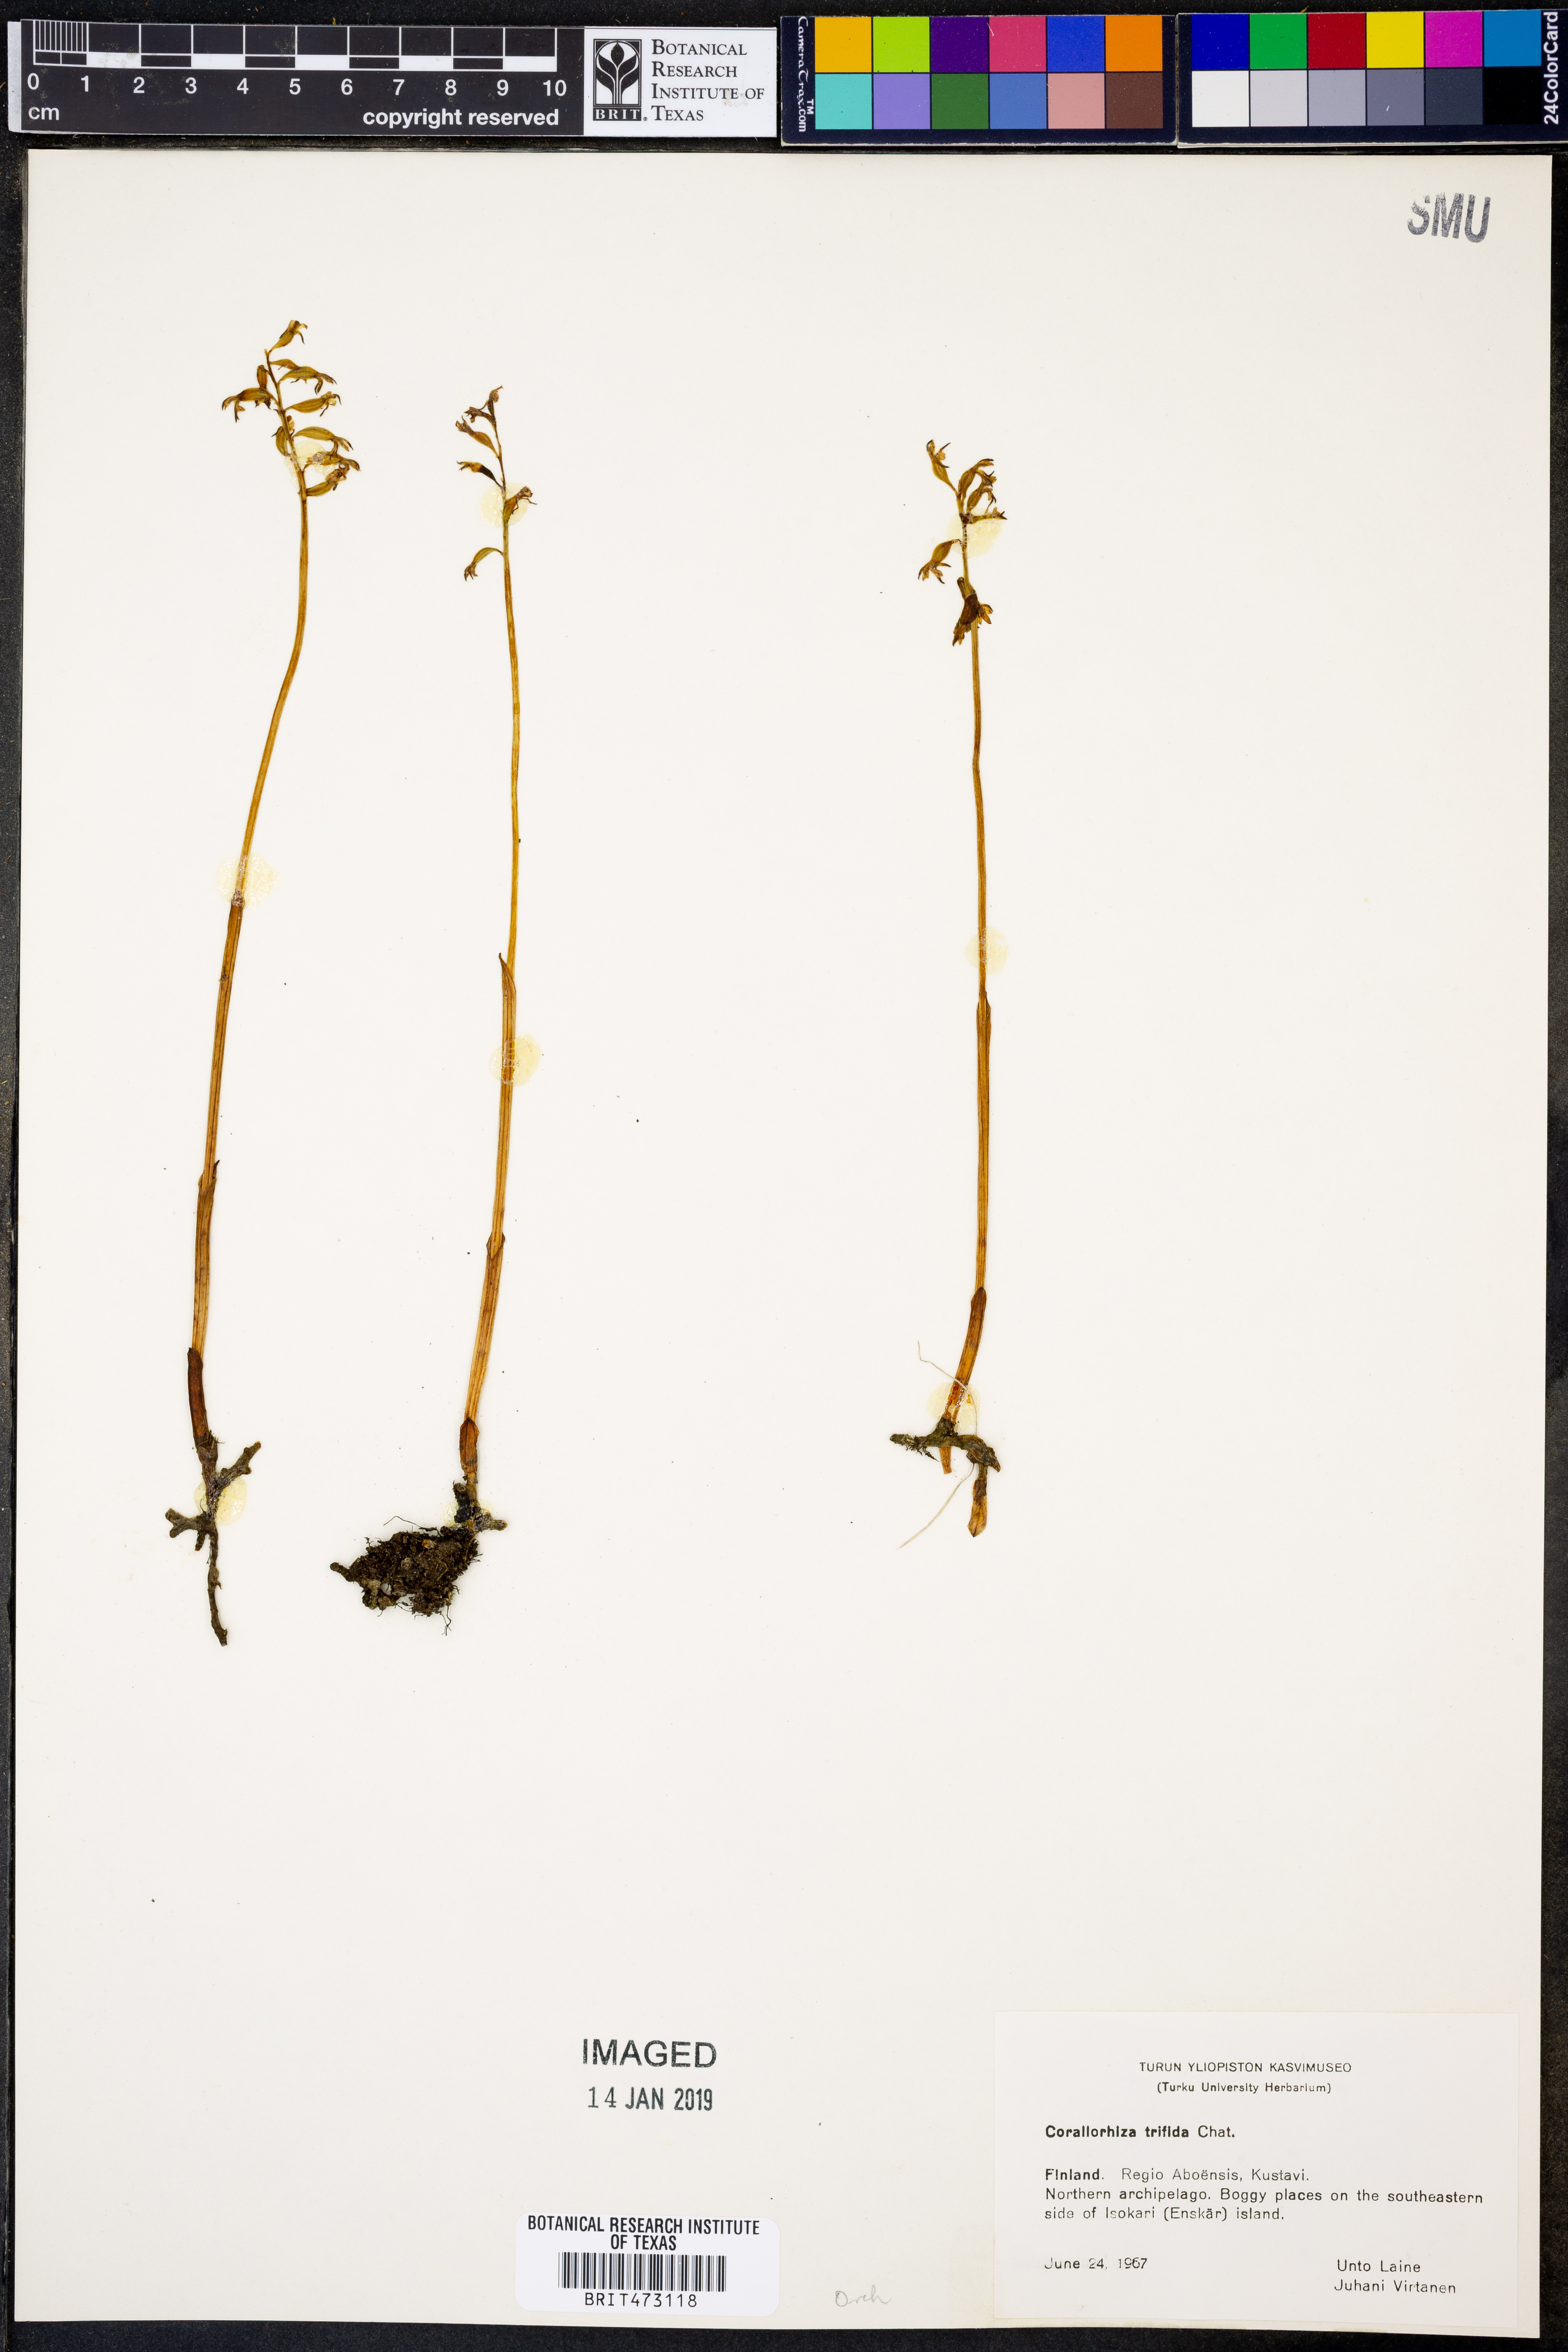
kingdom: Plantae
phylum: Tracheophyta
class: Liliopsida
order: Asparagales
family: Orchidaceae
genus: Corallorhiza
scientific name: Corallorhiza trifida
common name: Yellow coralroot
